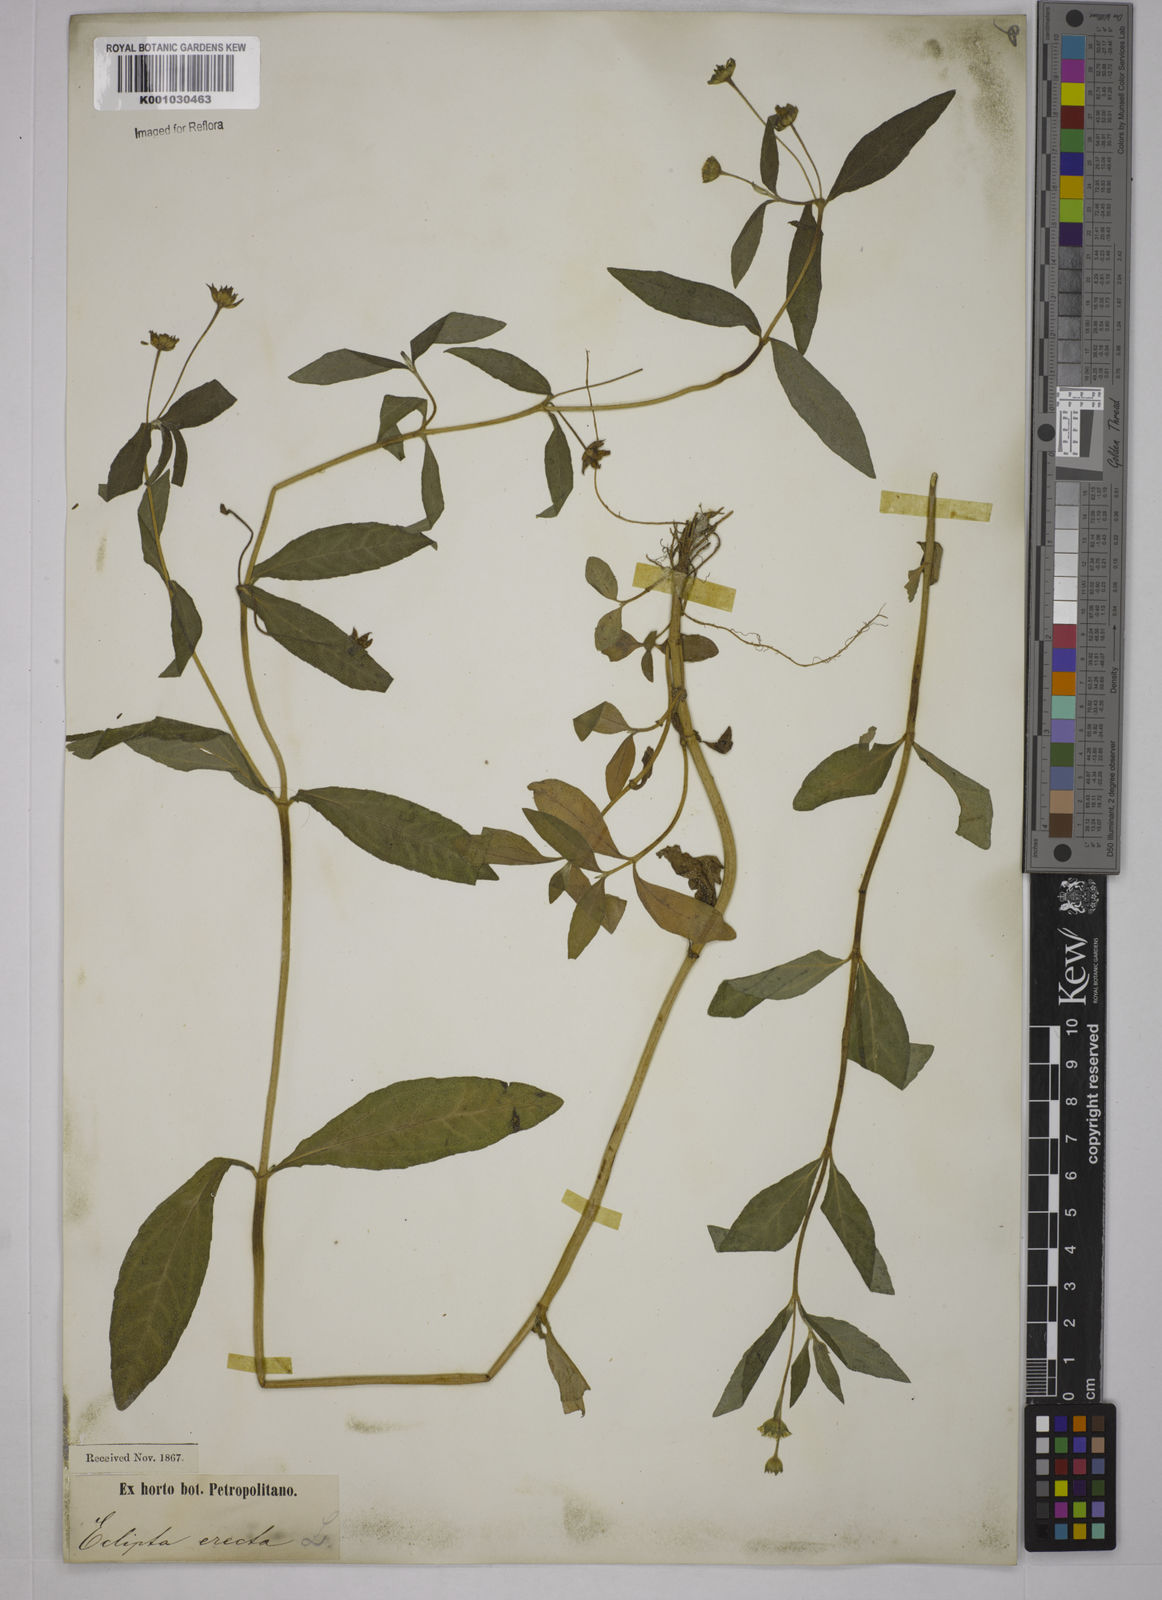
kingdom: Plantae
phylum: Tracheophyta
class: Magnoliopsida
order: Asterales
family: Asteraceae
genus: Eclipta
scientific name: Eclipta prostrata
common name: False daisy
